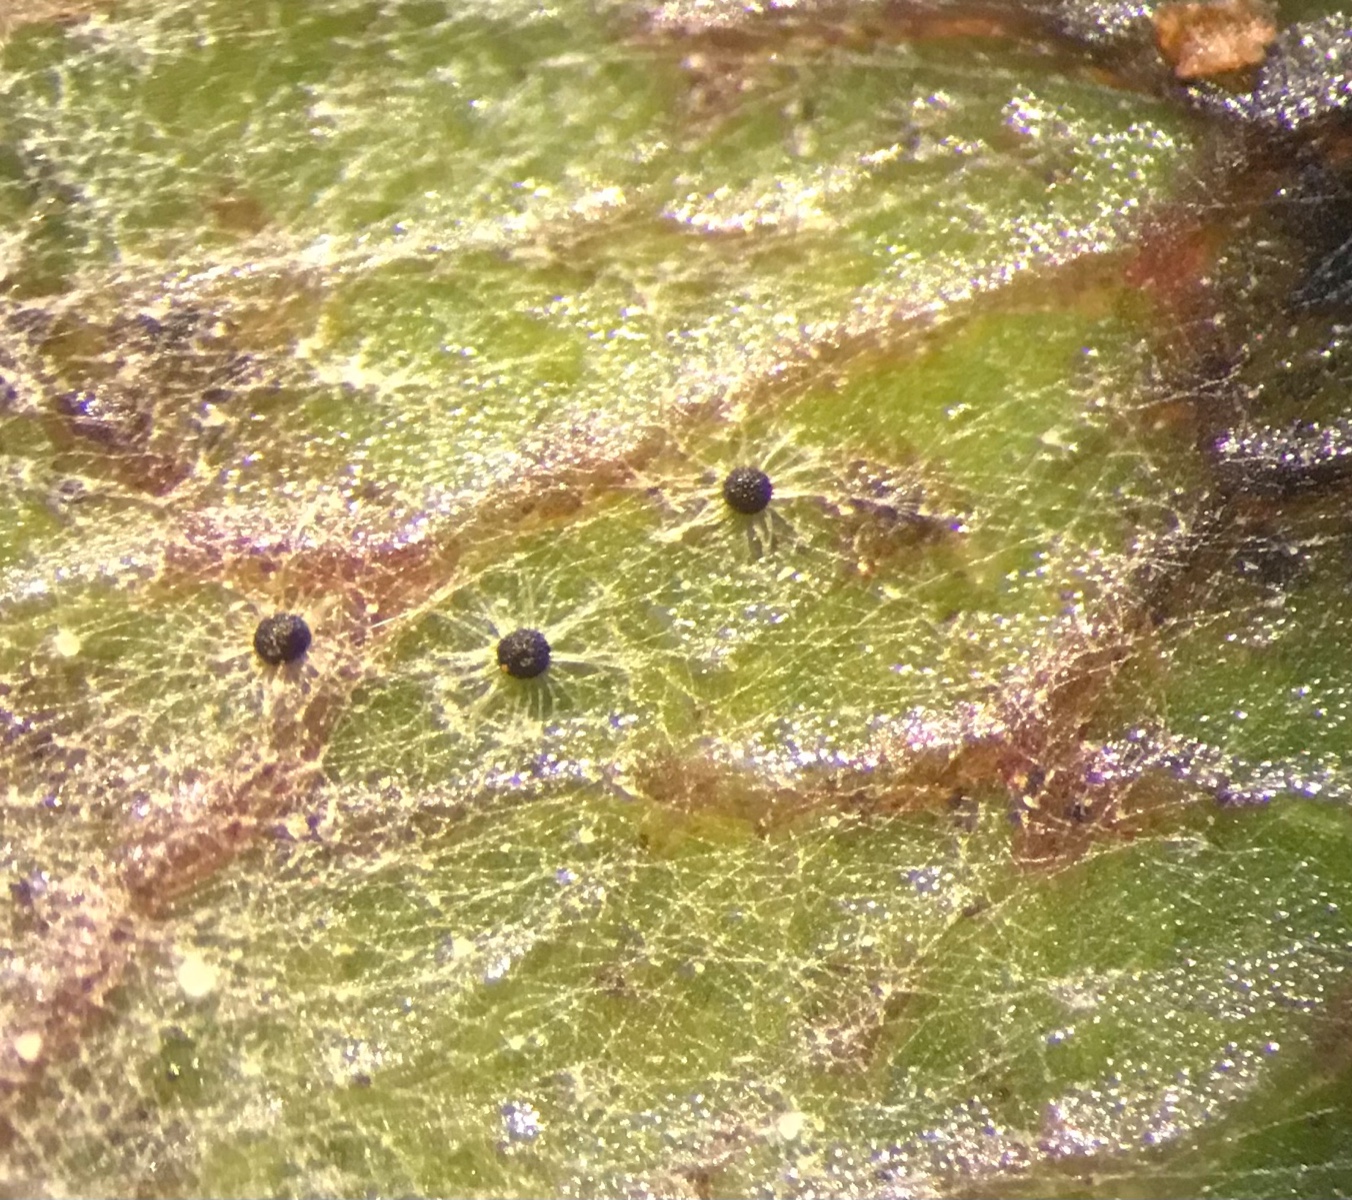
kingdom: Fungi
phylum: Ascomycota
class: Leotiomycetes
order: Helotiales
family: Erysiphaceae
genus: Podosphaera
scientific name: Podosphaera clandestina
